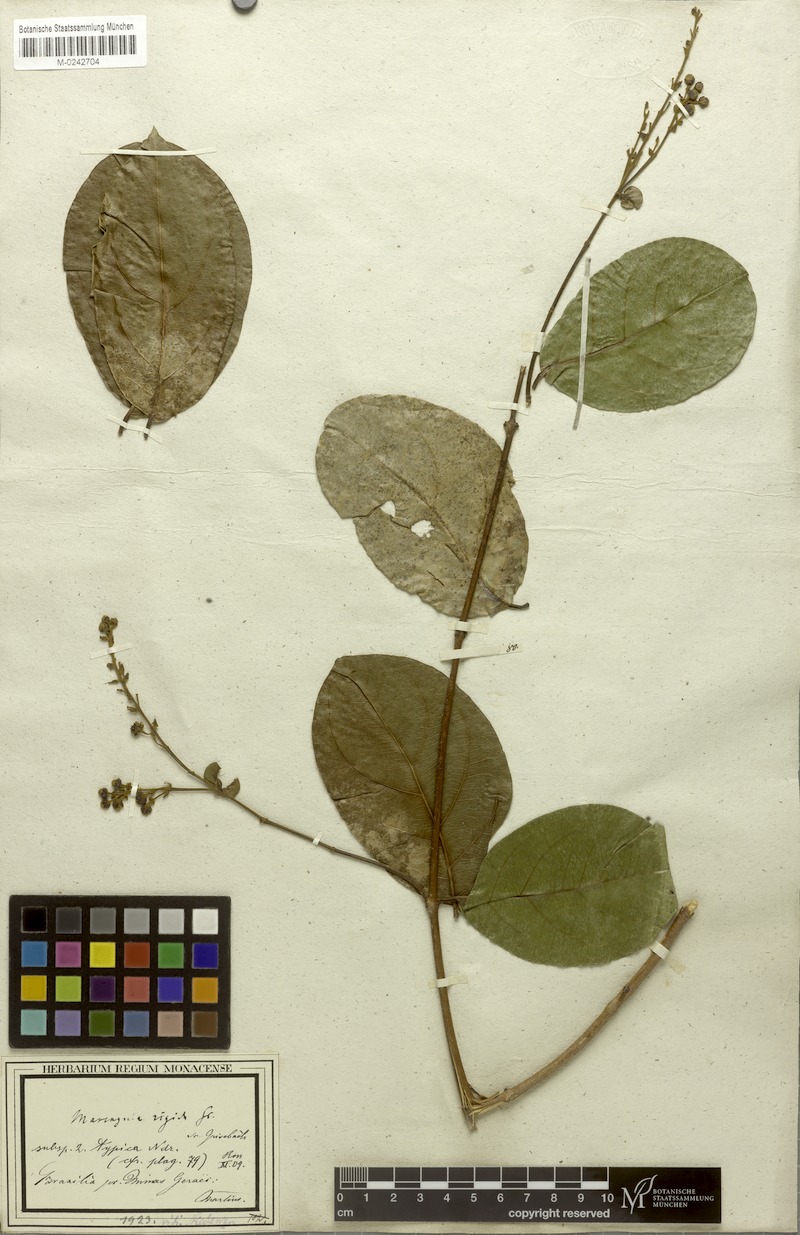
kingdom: Plantae
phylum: Tracheophyta
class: Magnoliopsida
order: Malpighiales
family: Malpighiaceae
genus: Amorimia
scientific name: Amorimia rigida
